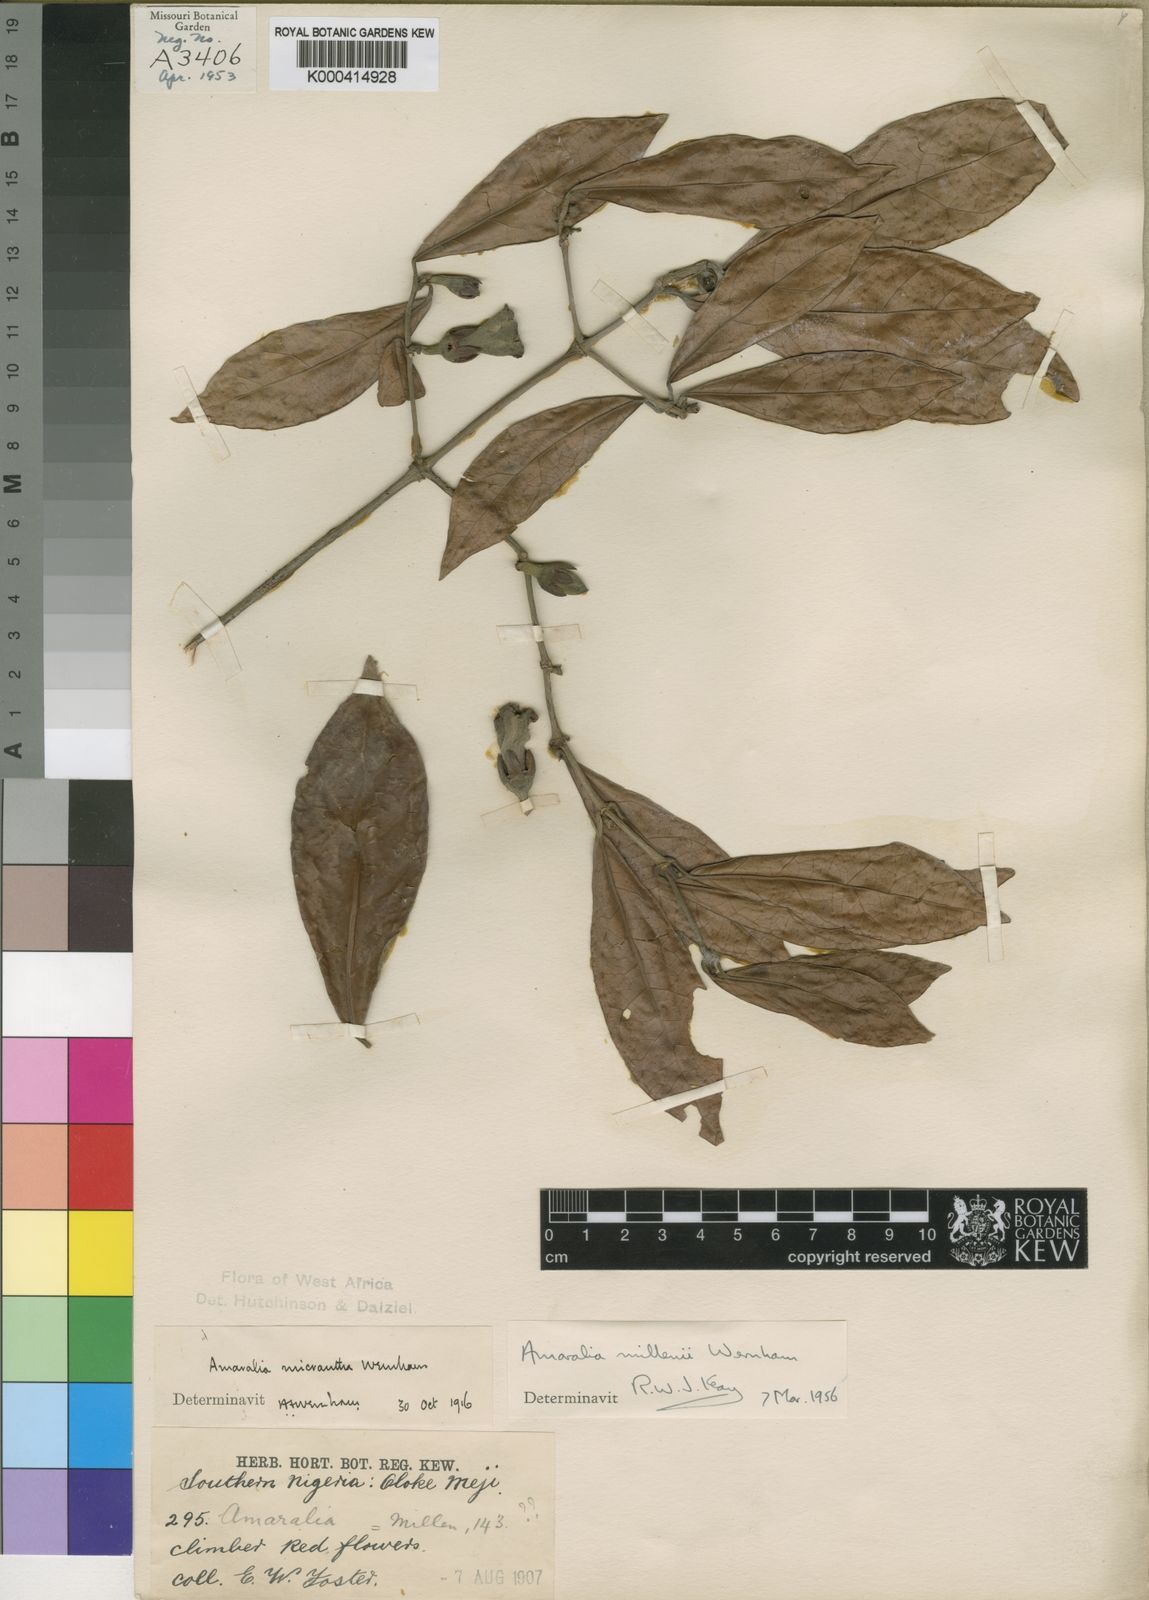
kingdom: Plantae
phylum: Tracheophyta
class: Magnoliopsida
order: Gentianales
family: Rubiaceae
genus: Sherbournia
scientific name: Sherbournia millenii
